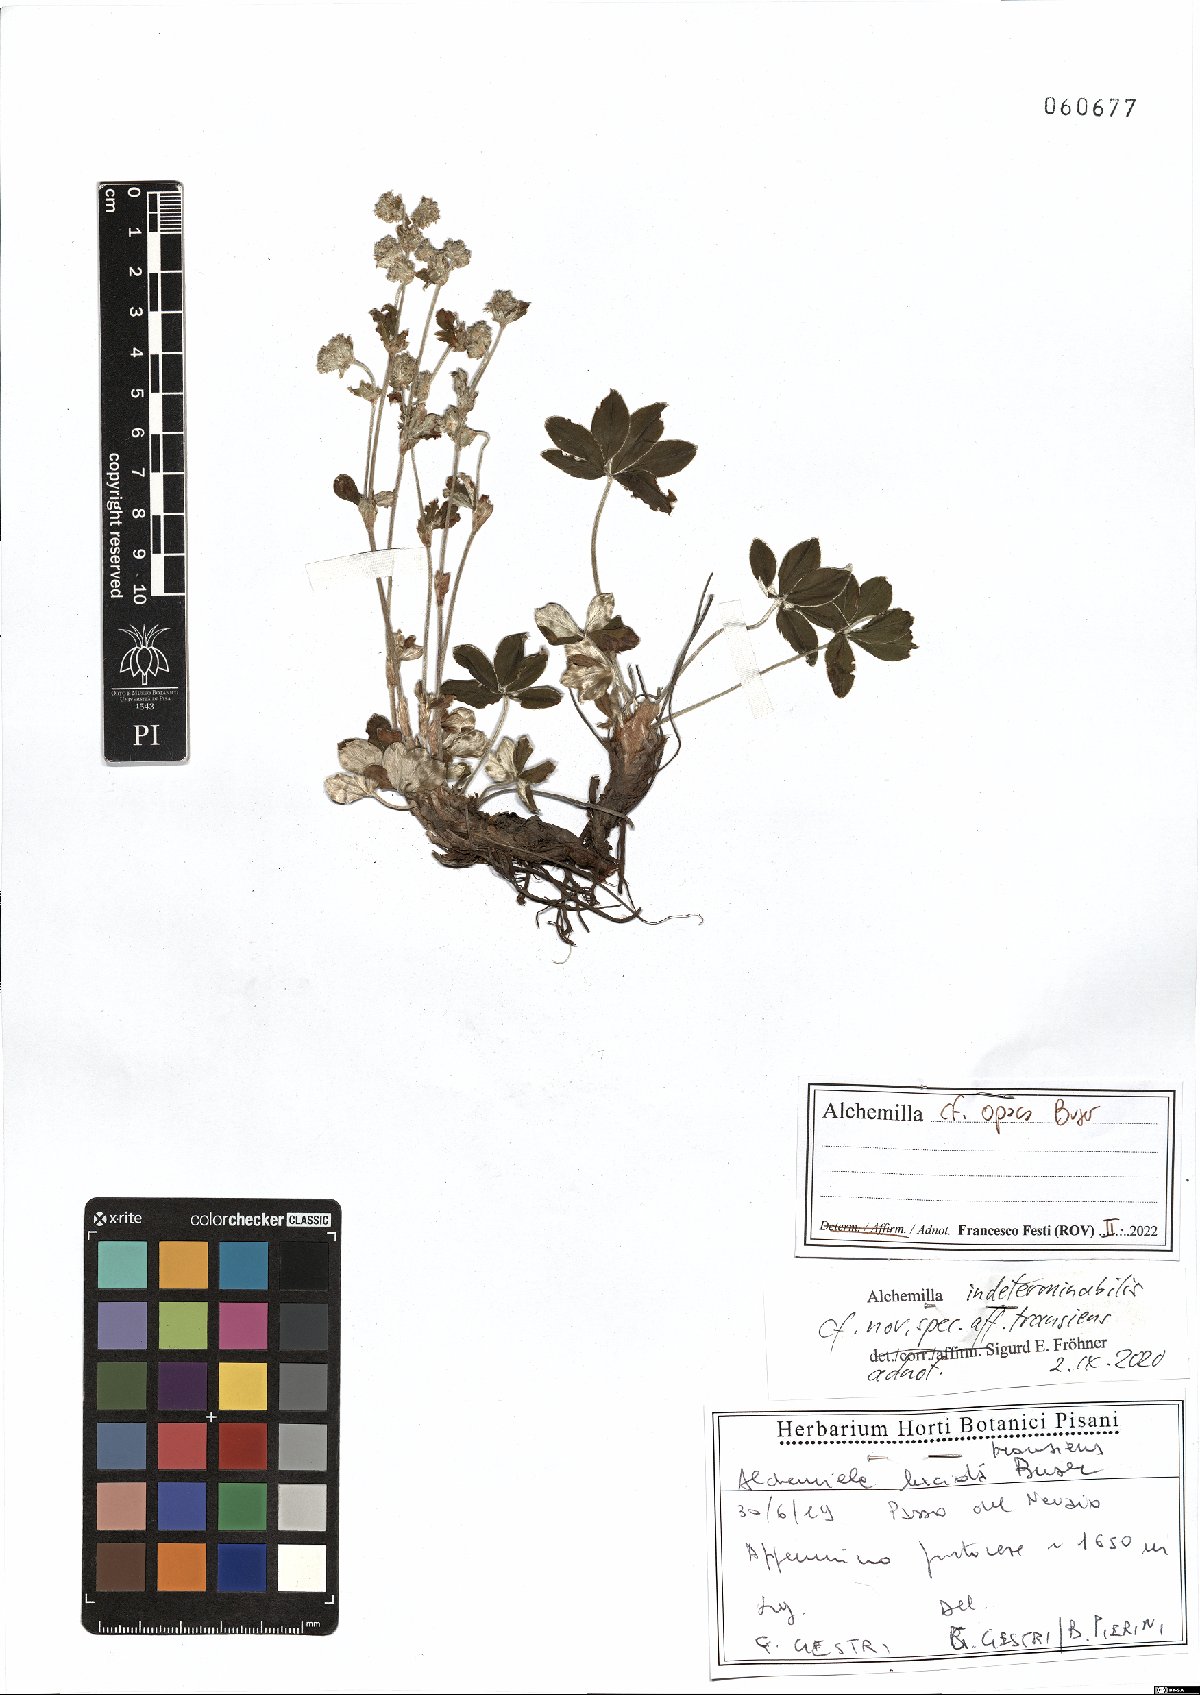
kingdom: Plantae
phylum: Tracheophyta
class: Magnoliopsida
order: Rosales
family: Rosaceae
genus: Alchemilla
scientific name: Alchemilla opaca
